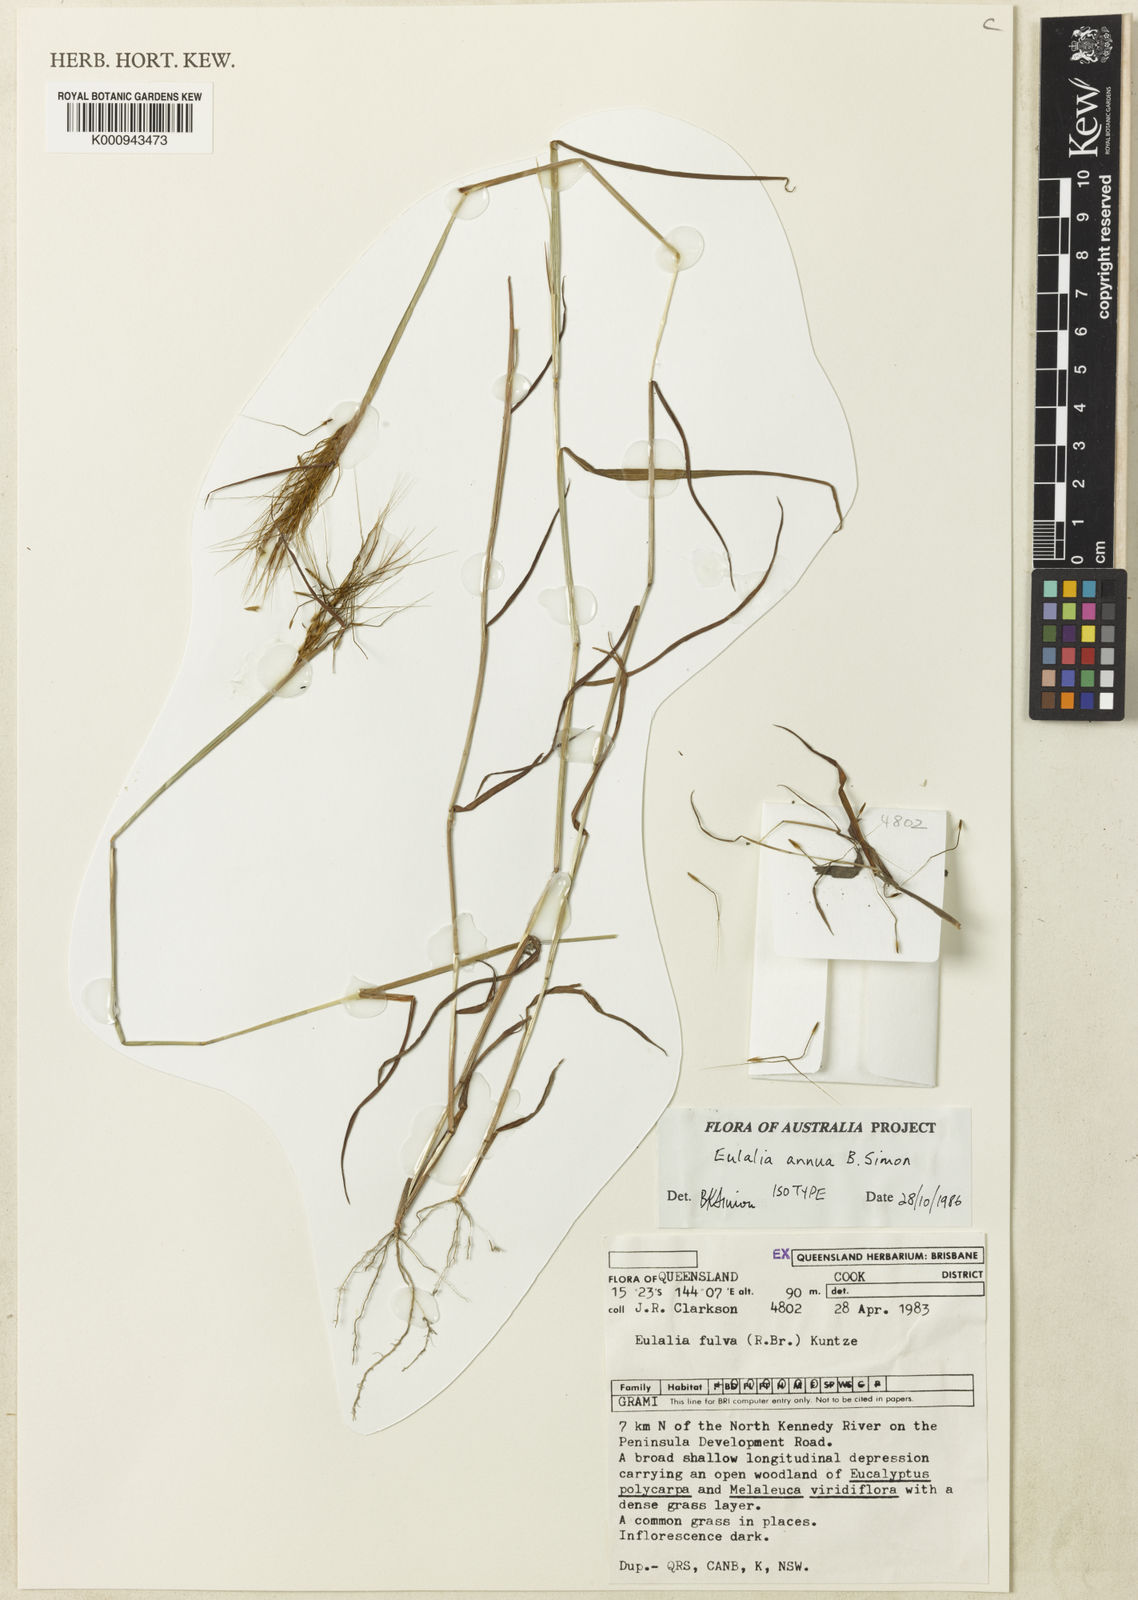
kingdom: Plantae
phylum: Tracheophyta
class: Liliopsida
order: Poales
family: Poaceae
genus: Eulalia
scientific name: Eulalia annua
